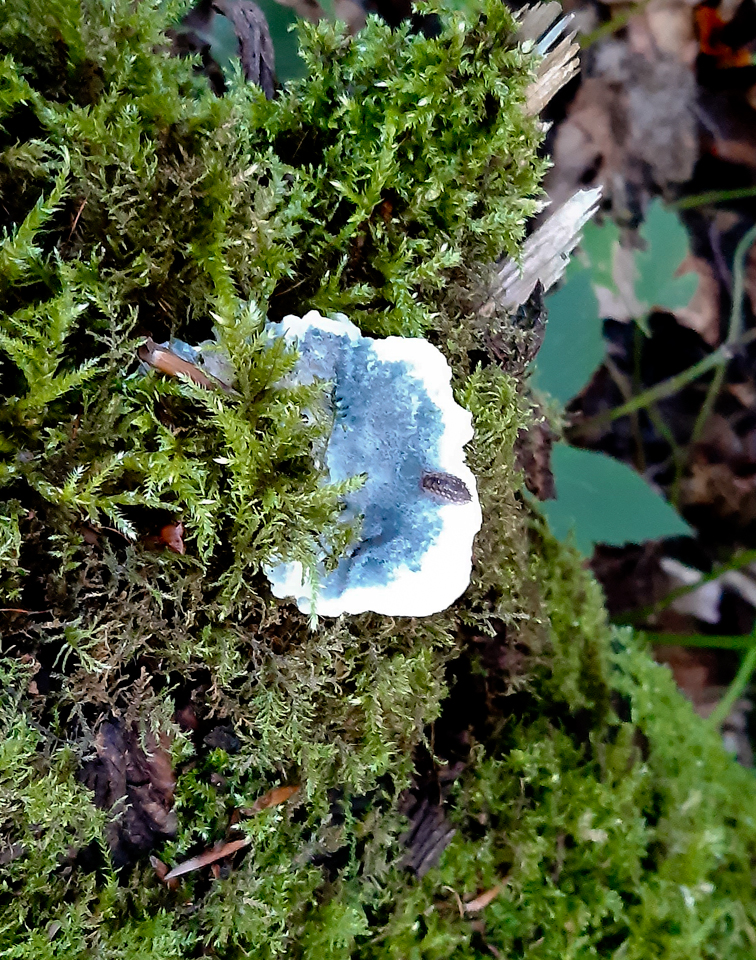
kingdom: Fungi
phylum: Basidiomycota
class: Agaricomycetes
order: Polyporales
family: Dacryobolaceae
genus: Postia
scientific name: Postia
